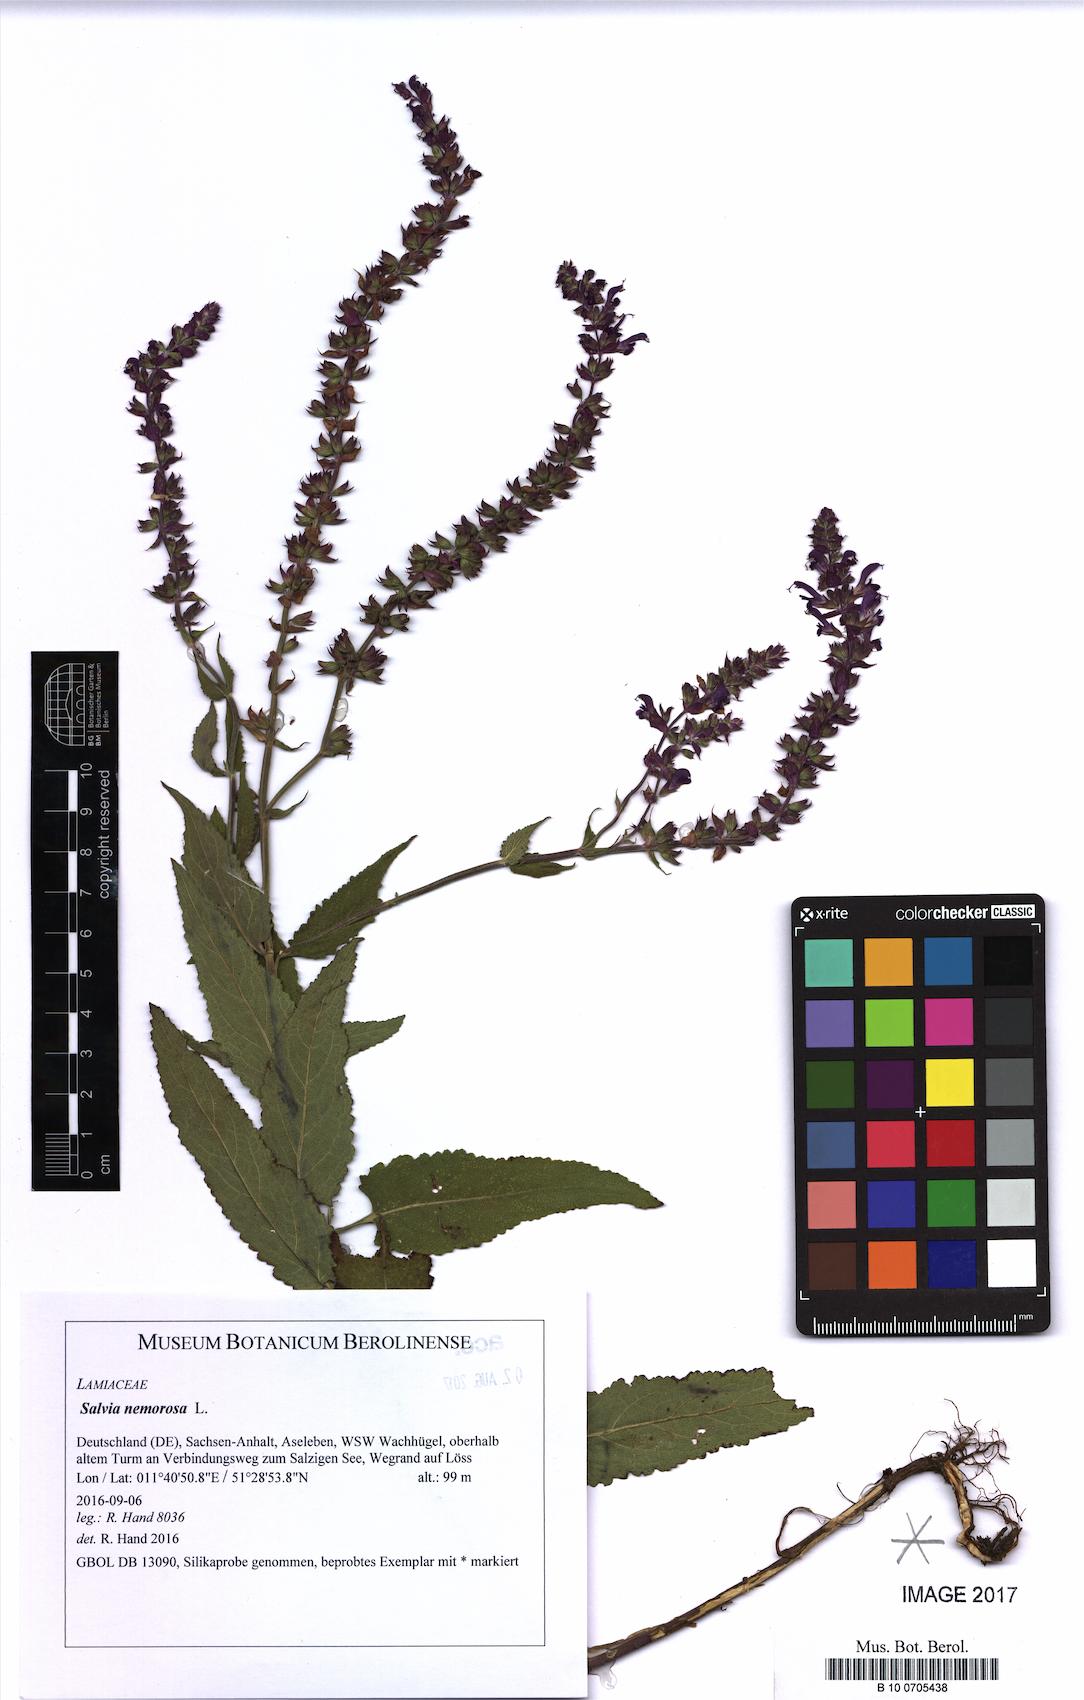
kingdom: Plantae
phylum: Tracheophyta
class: Magnoliopsida
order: Lamiales
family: Lamiaceae
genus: Salvia
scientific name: Salvia nemorosa
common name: Balkan clary
